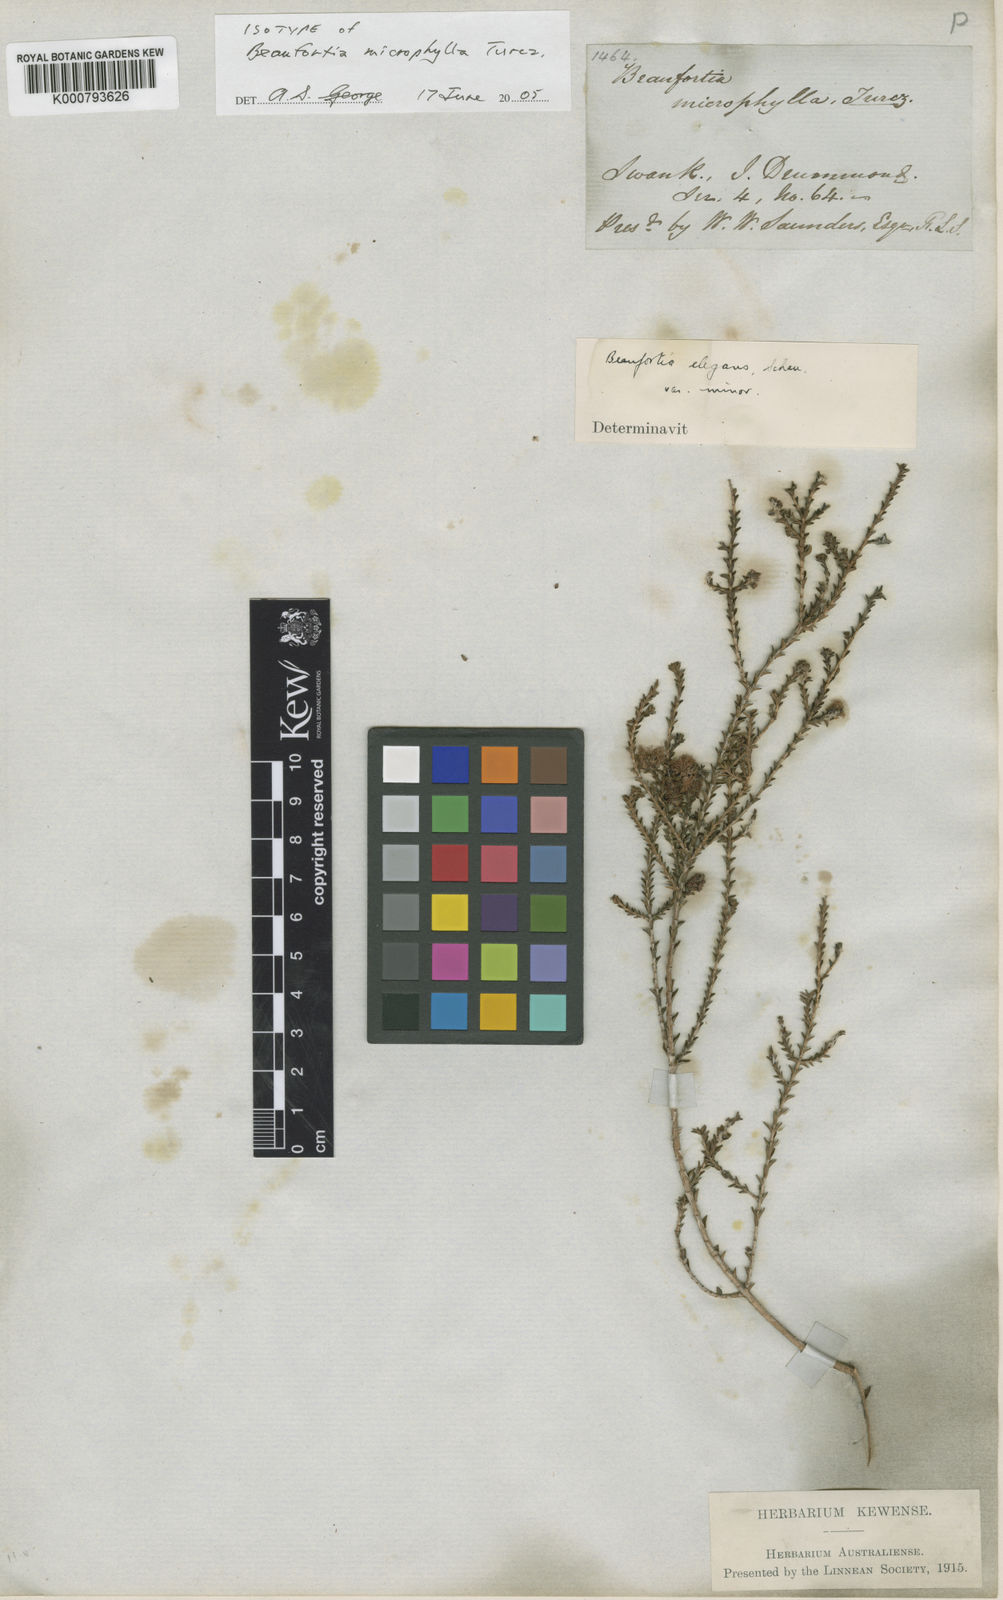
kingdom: Plantae
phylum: Tracheophyta
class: Magnoliopsida
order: Myrtales
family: Myrtaceae
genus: Melaleuca
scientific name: Melaleuca empetrifolia
